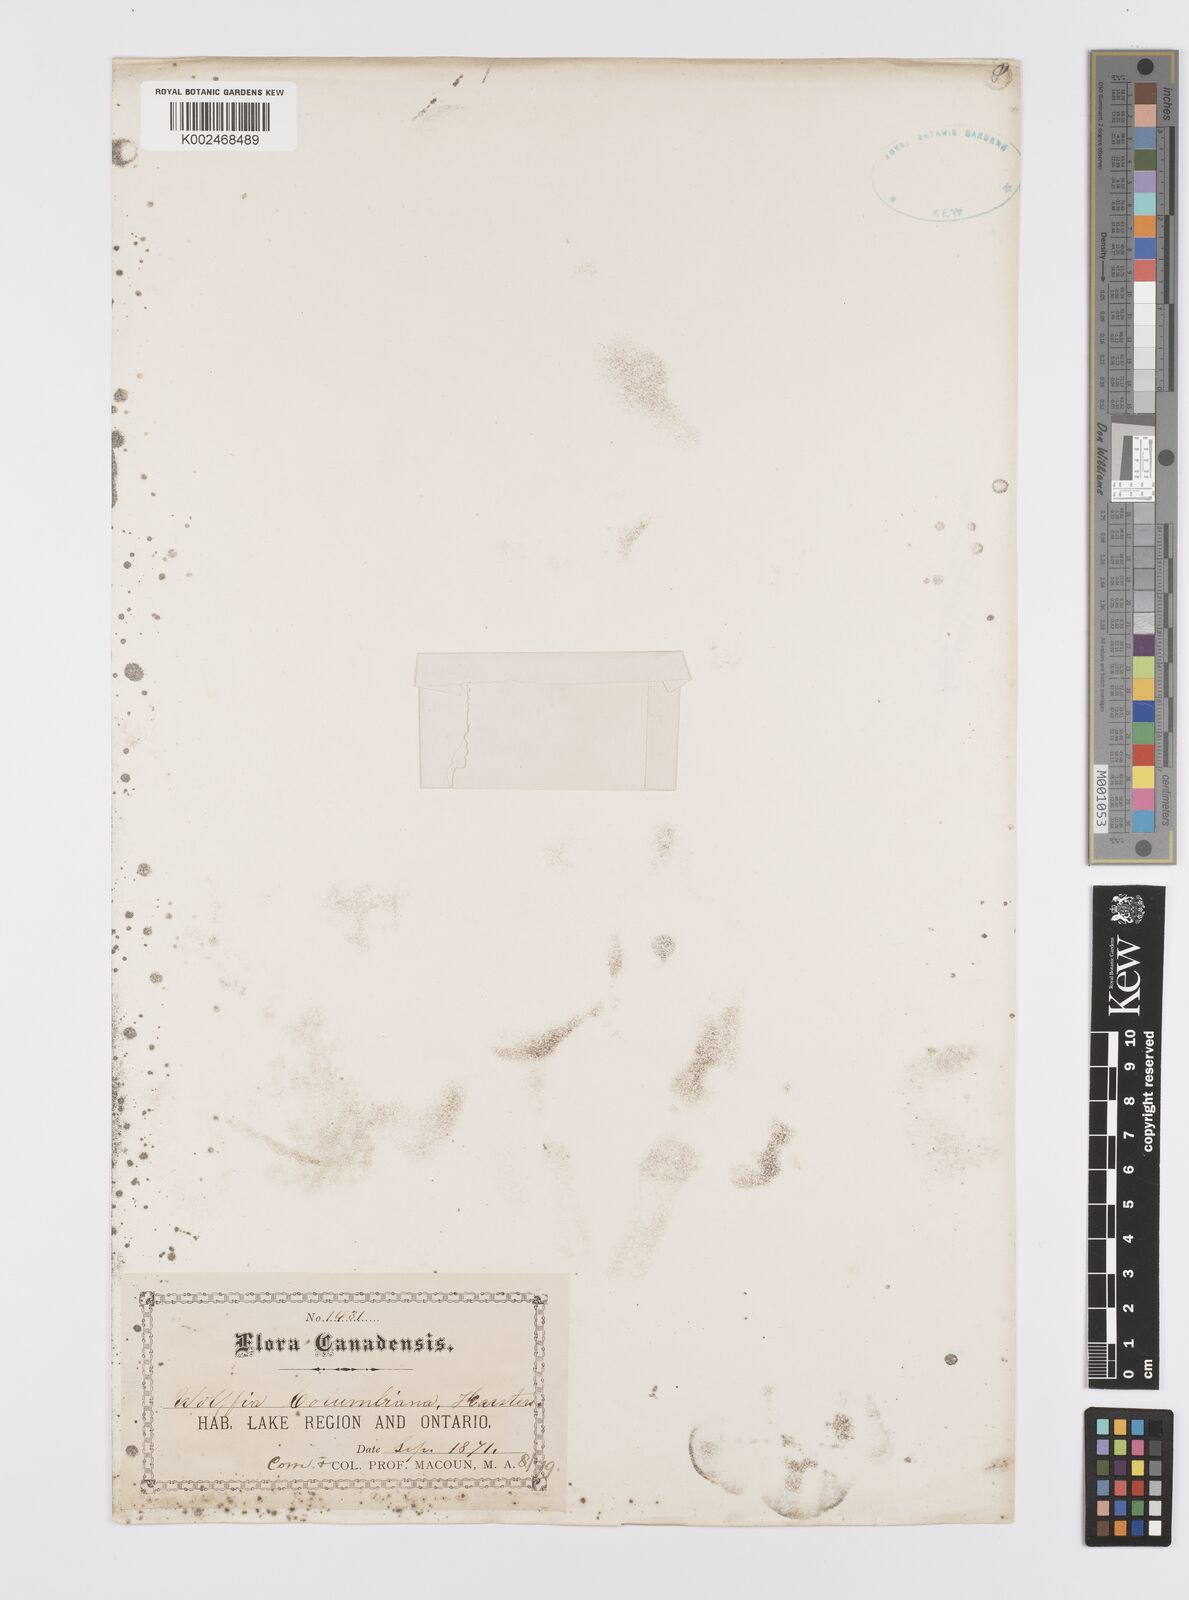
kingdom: Plantae
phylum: Tracheophyta
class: Liliopsida
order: Alismatales
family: Araceae
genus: Wolffia
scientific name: Wolffia columbiana
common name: Columbia watermeal
